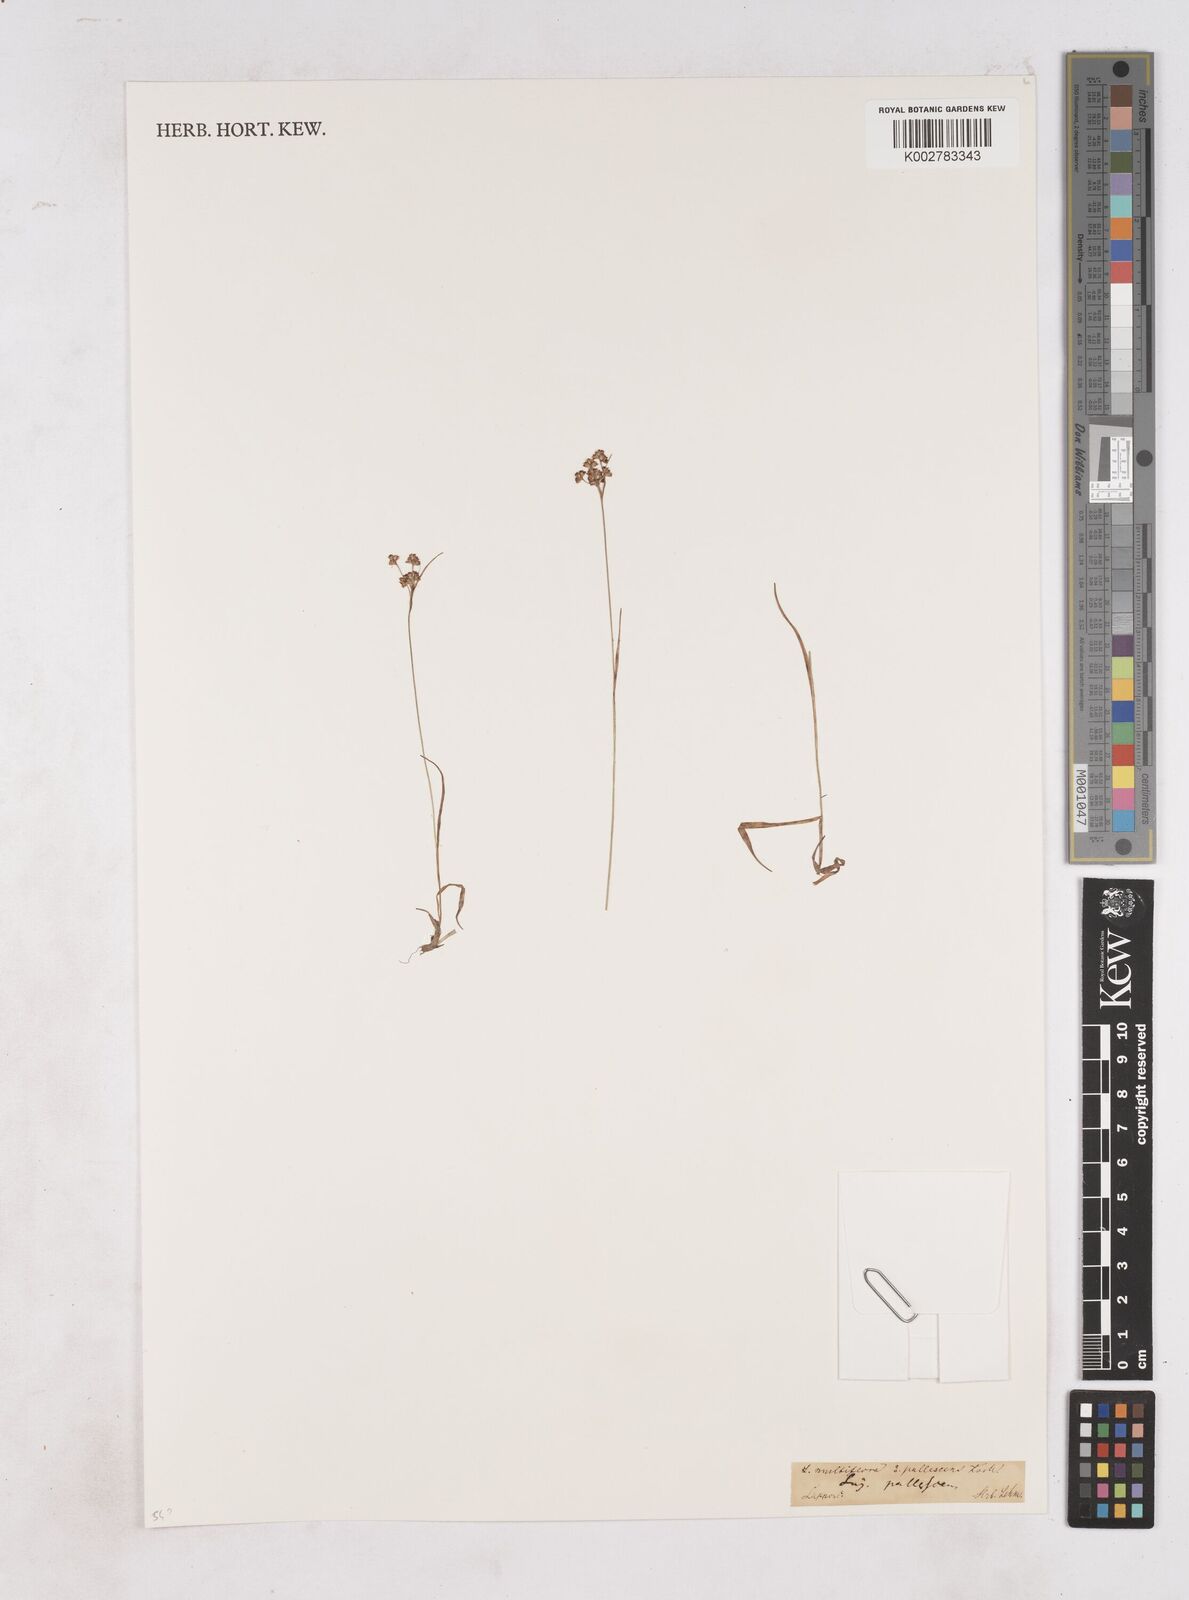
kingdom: Plantae
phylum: Tracheophyta
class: Liliopsida
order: Poales
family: Juncaceae
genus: Luzula
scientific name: Luzula multiflora
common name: Heath wood-rush
